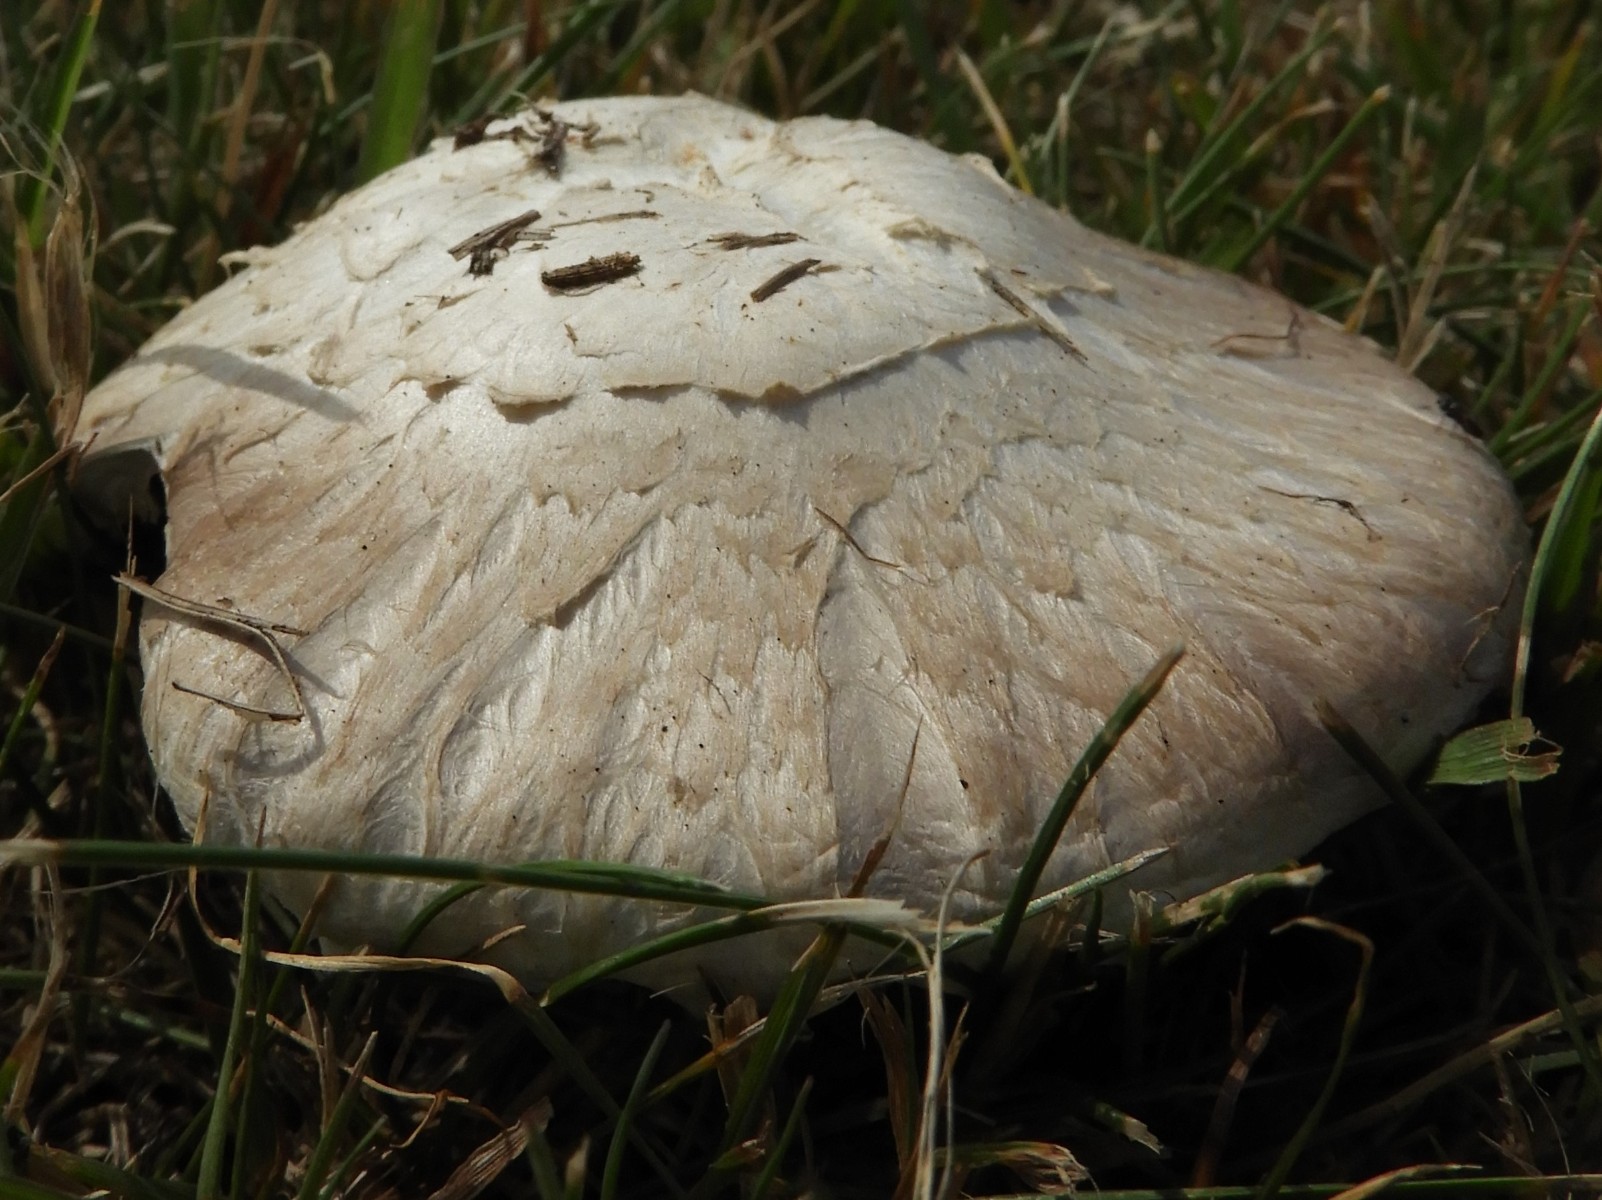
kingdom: Fungi
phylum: Basidiomycota
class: Agaricomycetes
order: Agaricales
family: Agaricaceae
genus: Agaricus
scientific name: Agaricus campestris
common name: mark-champignon
